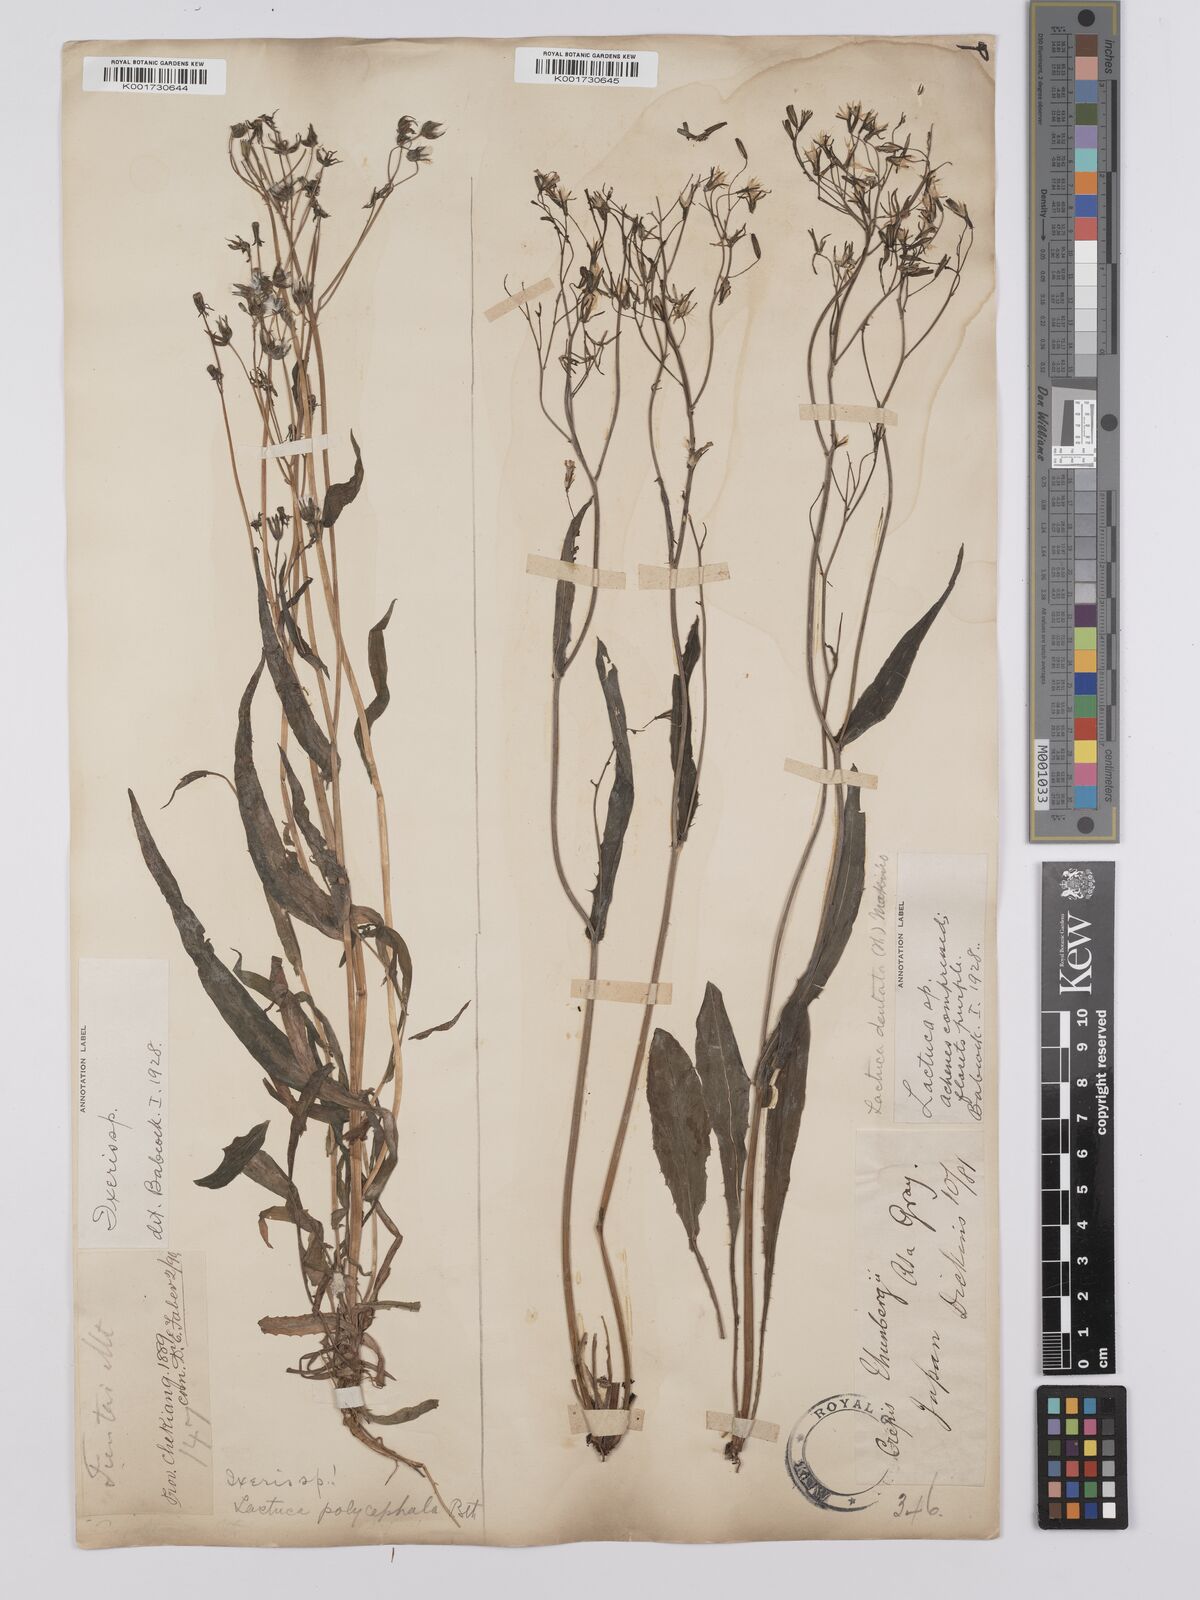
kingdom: Plantae
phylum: Tracheophyta
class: Magnoliopsida
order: Asterales
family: Asteraceae
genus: Ixeridium
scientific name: Ixeridium dentatum
